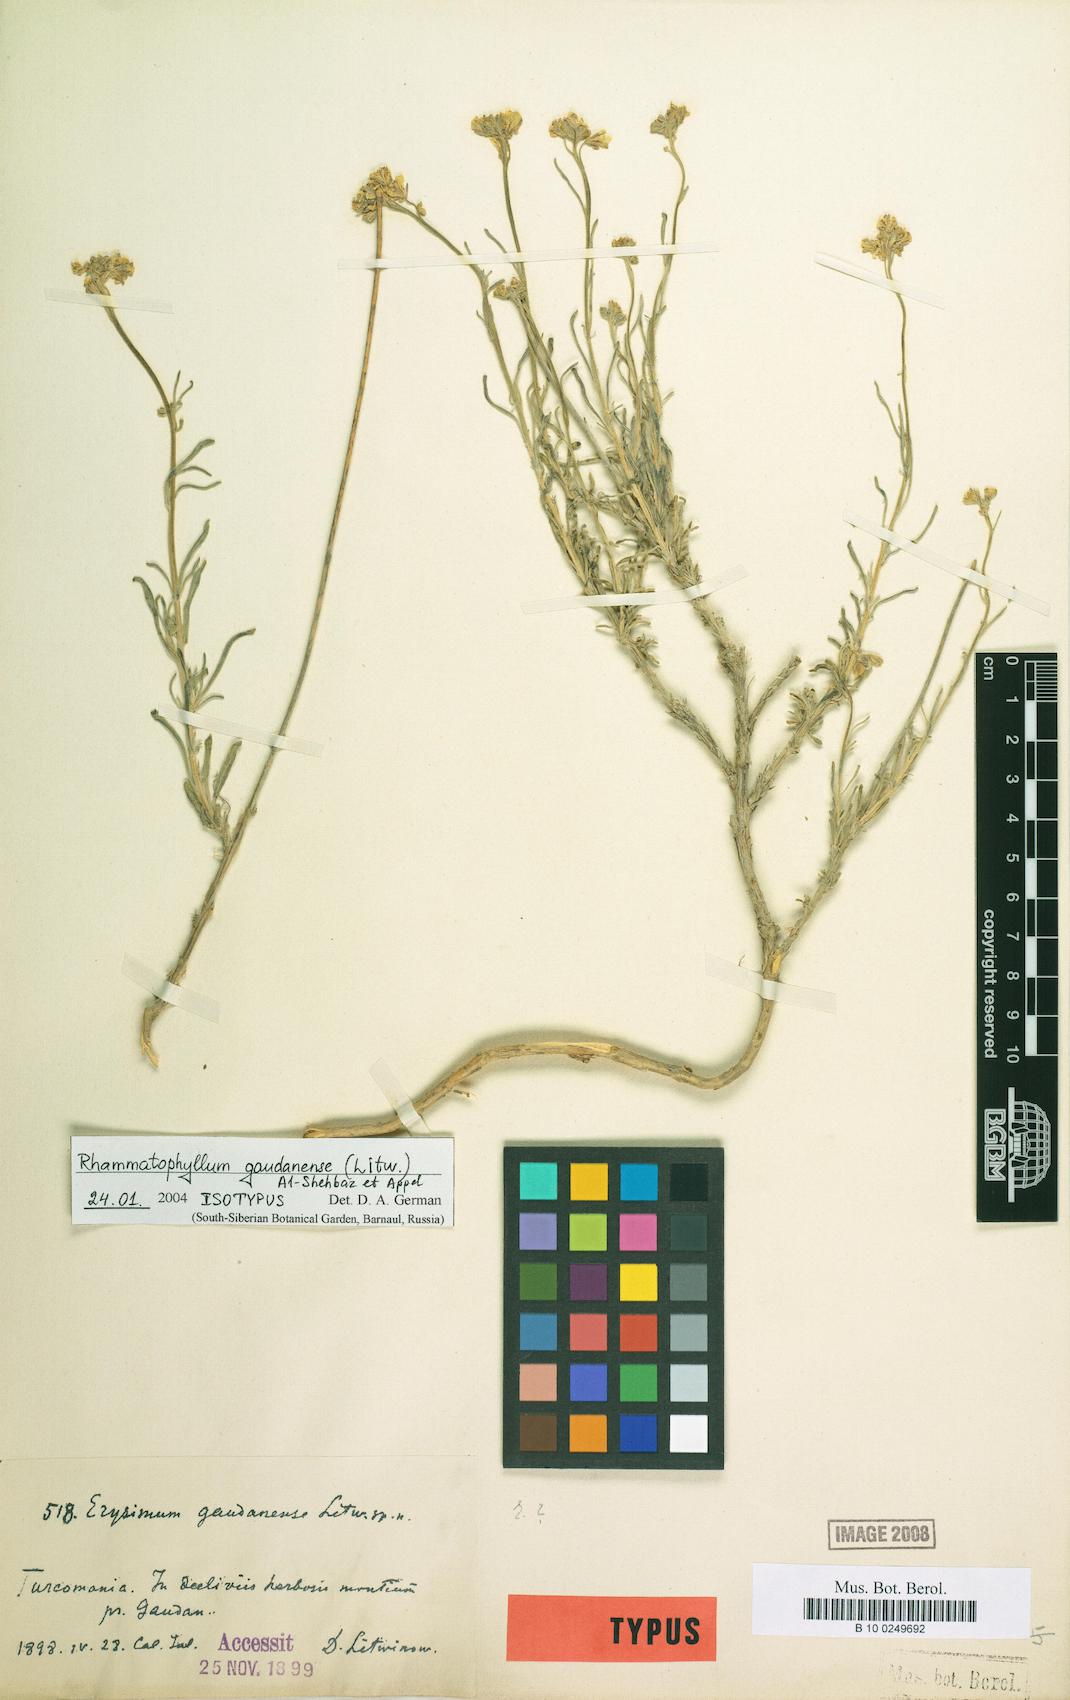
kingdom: Plantae
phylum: Tracheophyta
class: Magnoliopsida
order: Brassicales
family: Brassicaceae
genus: Rhammatophyllum
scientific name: Rhammatophyllum gaudanense
